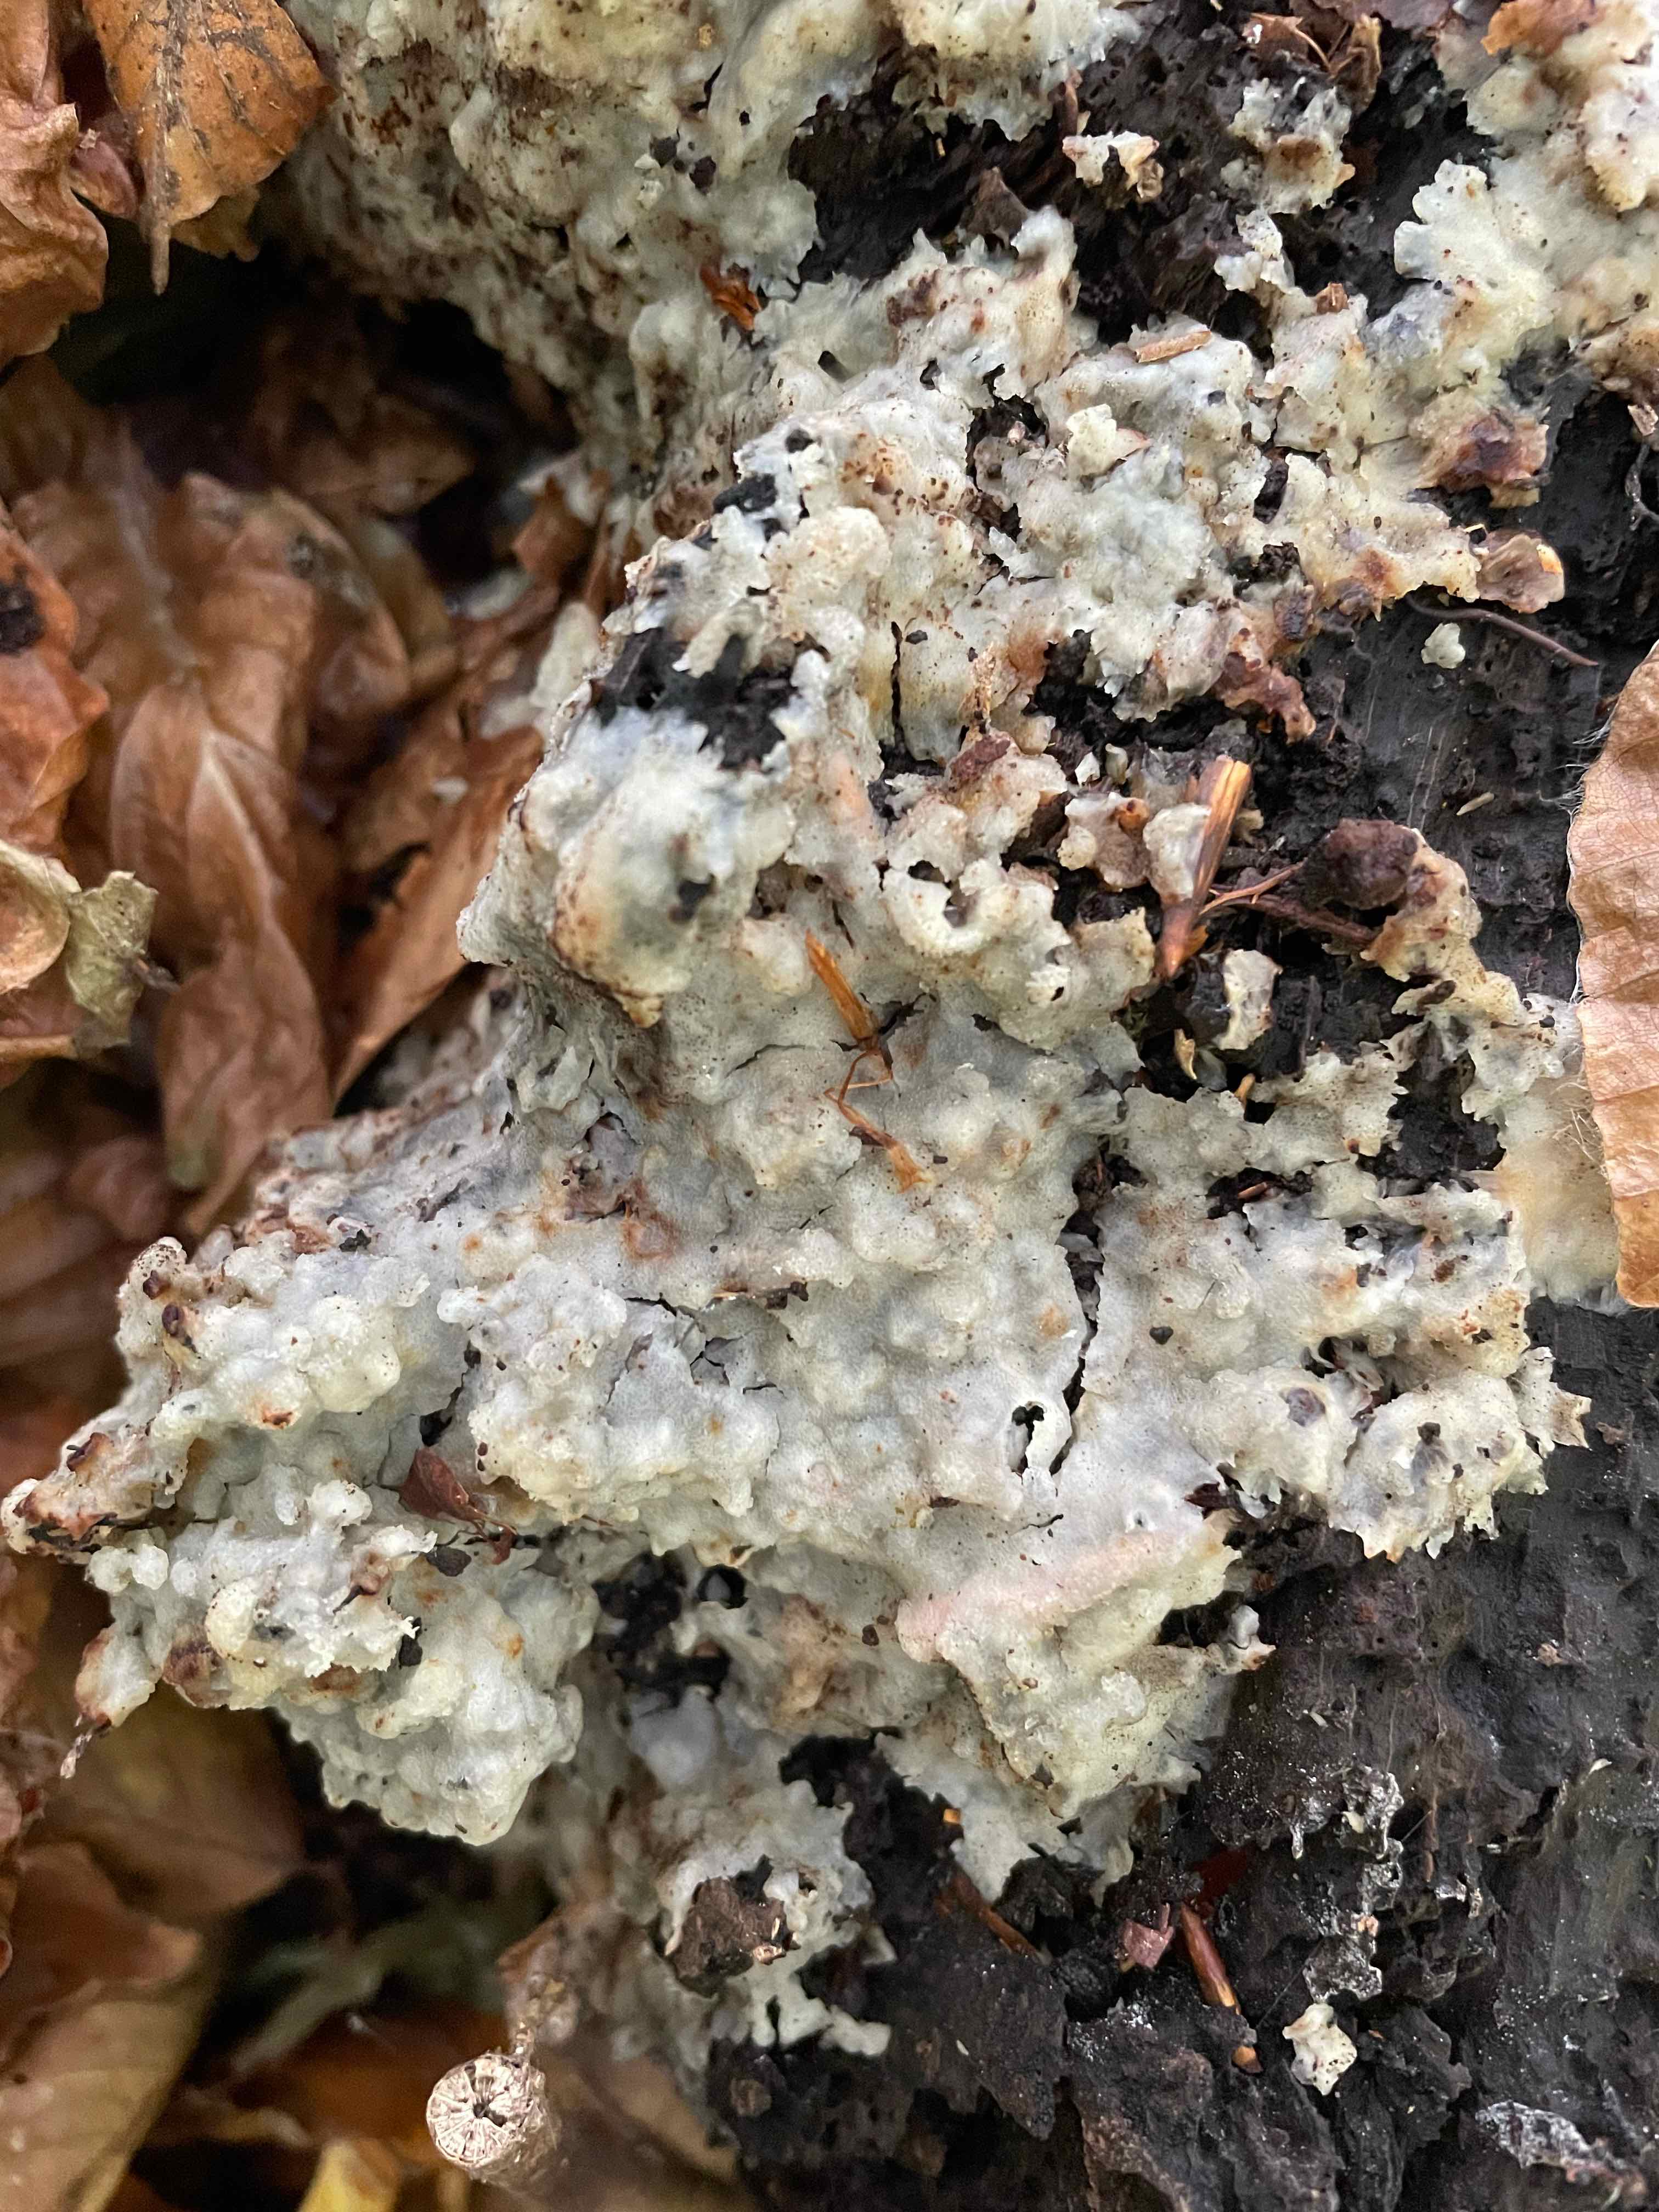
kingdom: Fungi
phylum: Basidiomycota
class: Agaricomycetes
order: Polyporales
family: Meruliaceae
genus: Physisporinus
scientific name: Physisporinus vitreus
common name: mastesvamp
